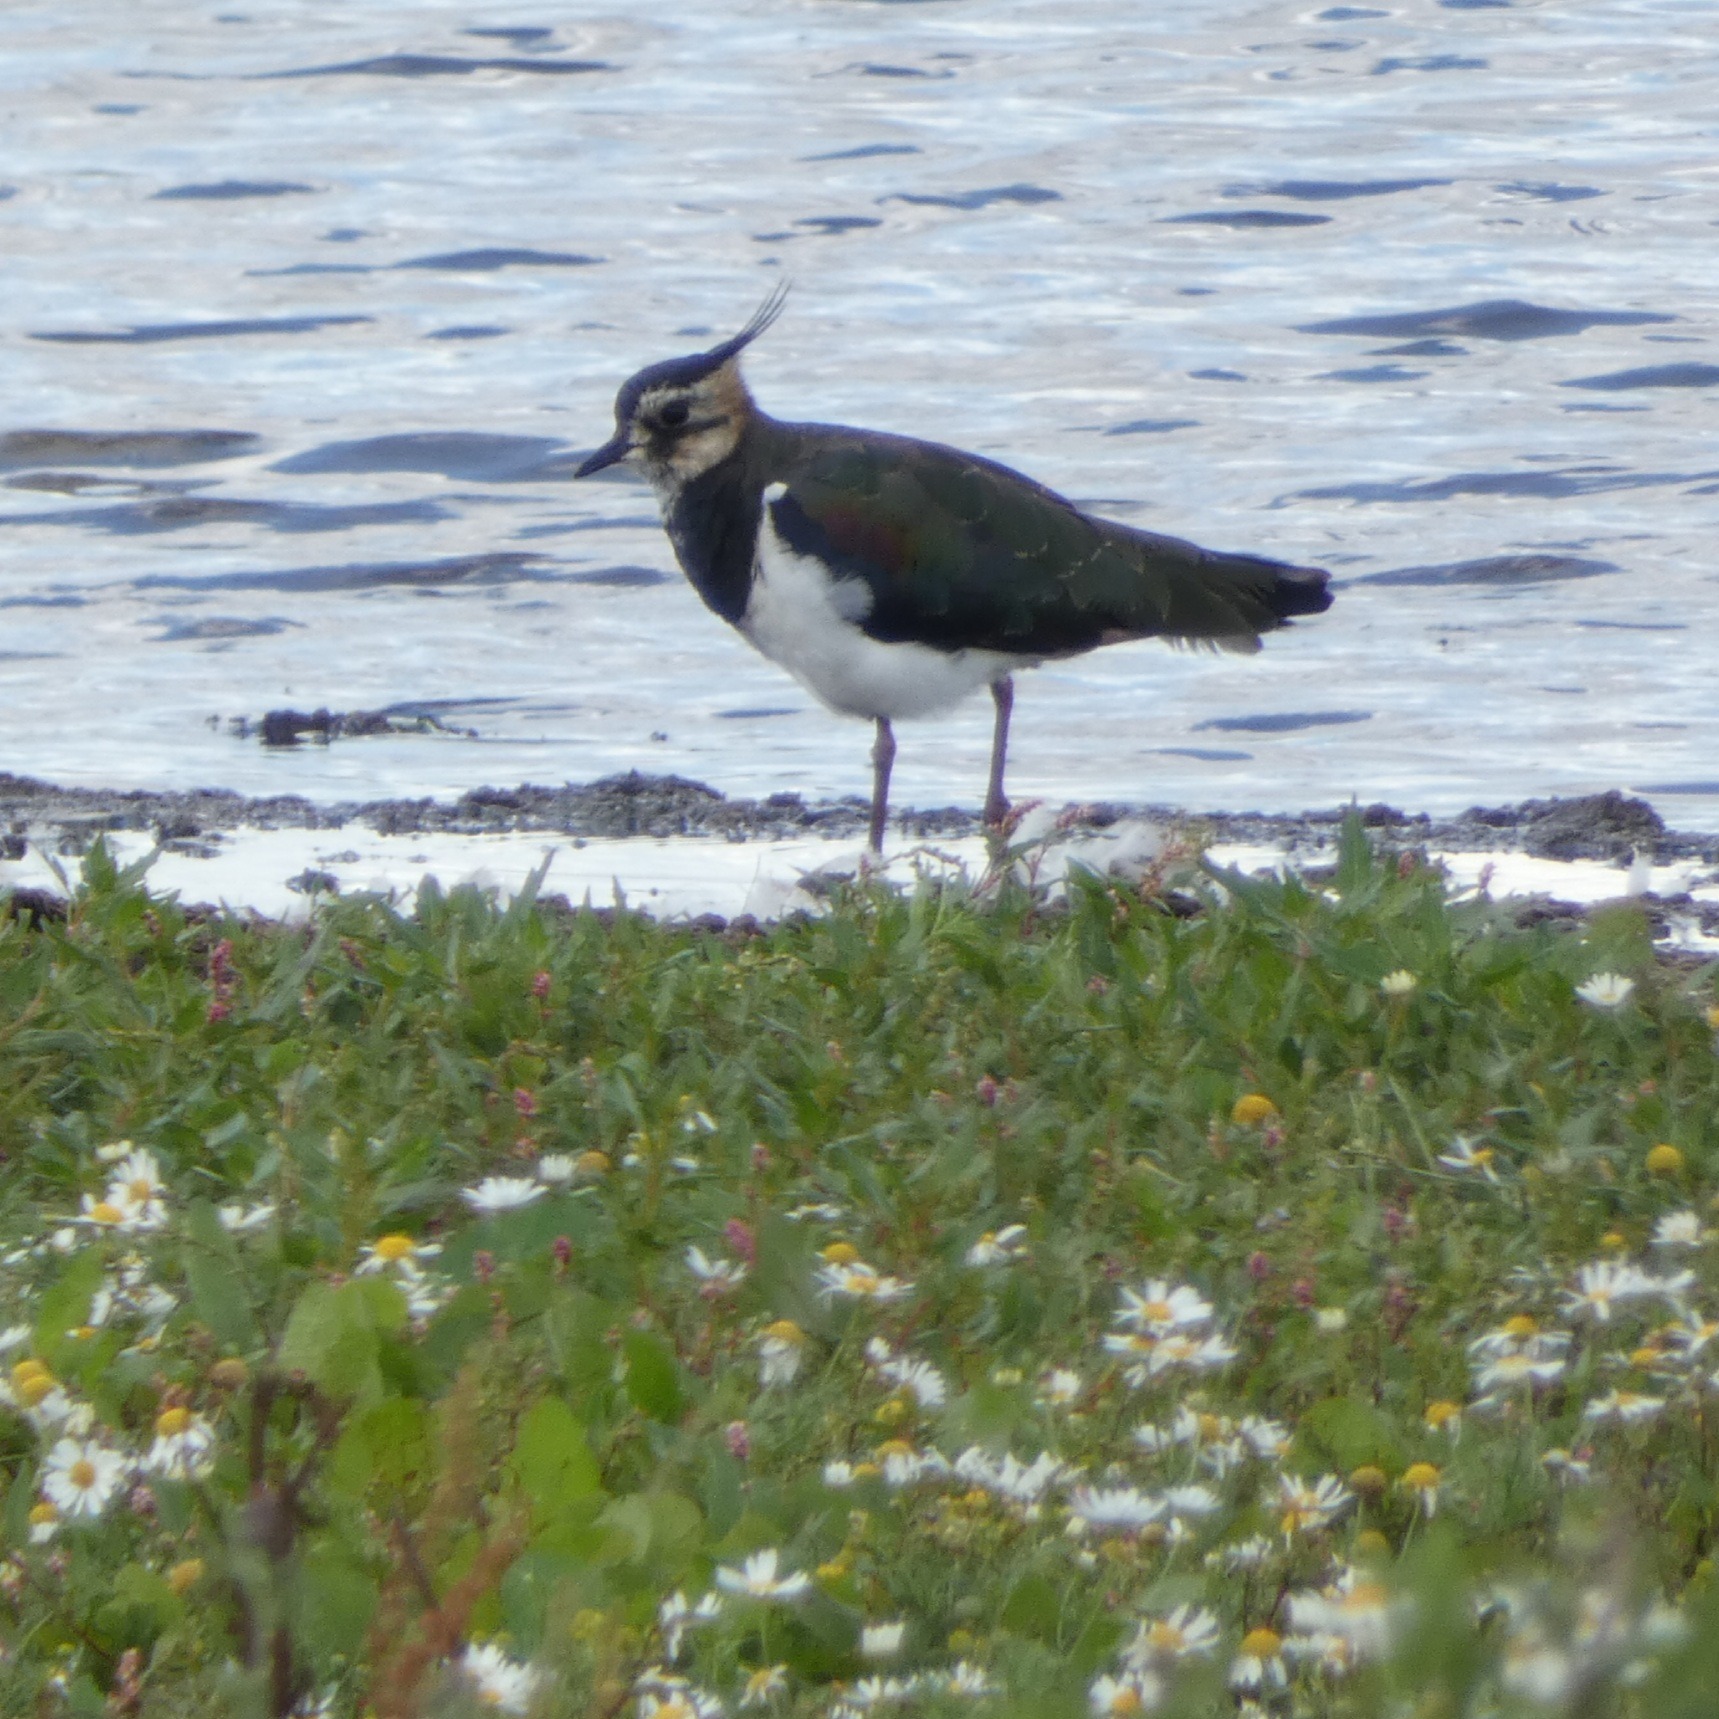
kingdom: Animalia
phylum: Chordata
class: Aves
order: Charadriiformes
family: Charadriidae
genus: Vanellus
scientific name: Vanellus vanellus
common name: Vibe
